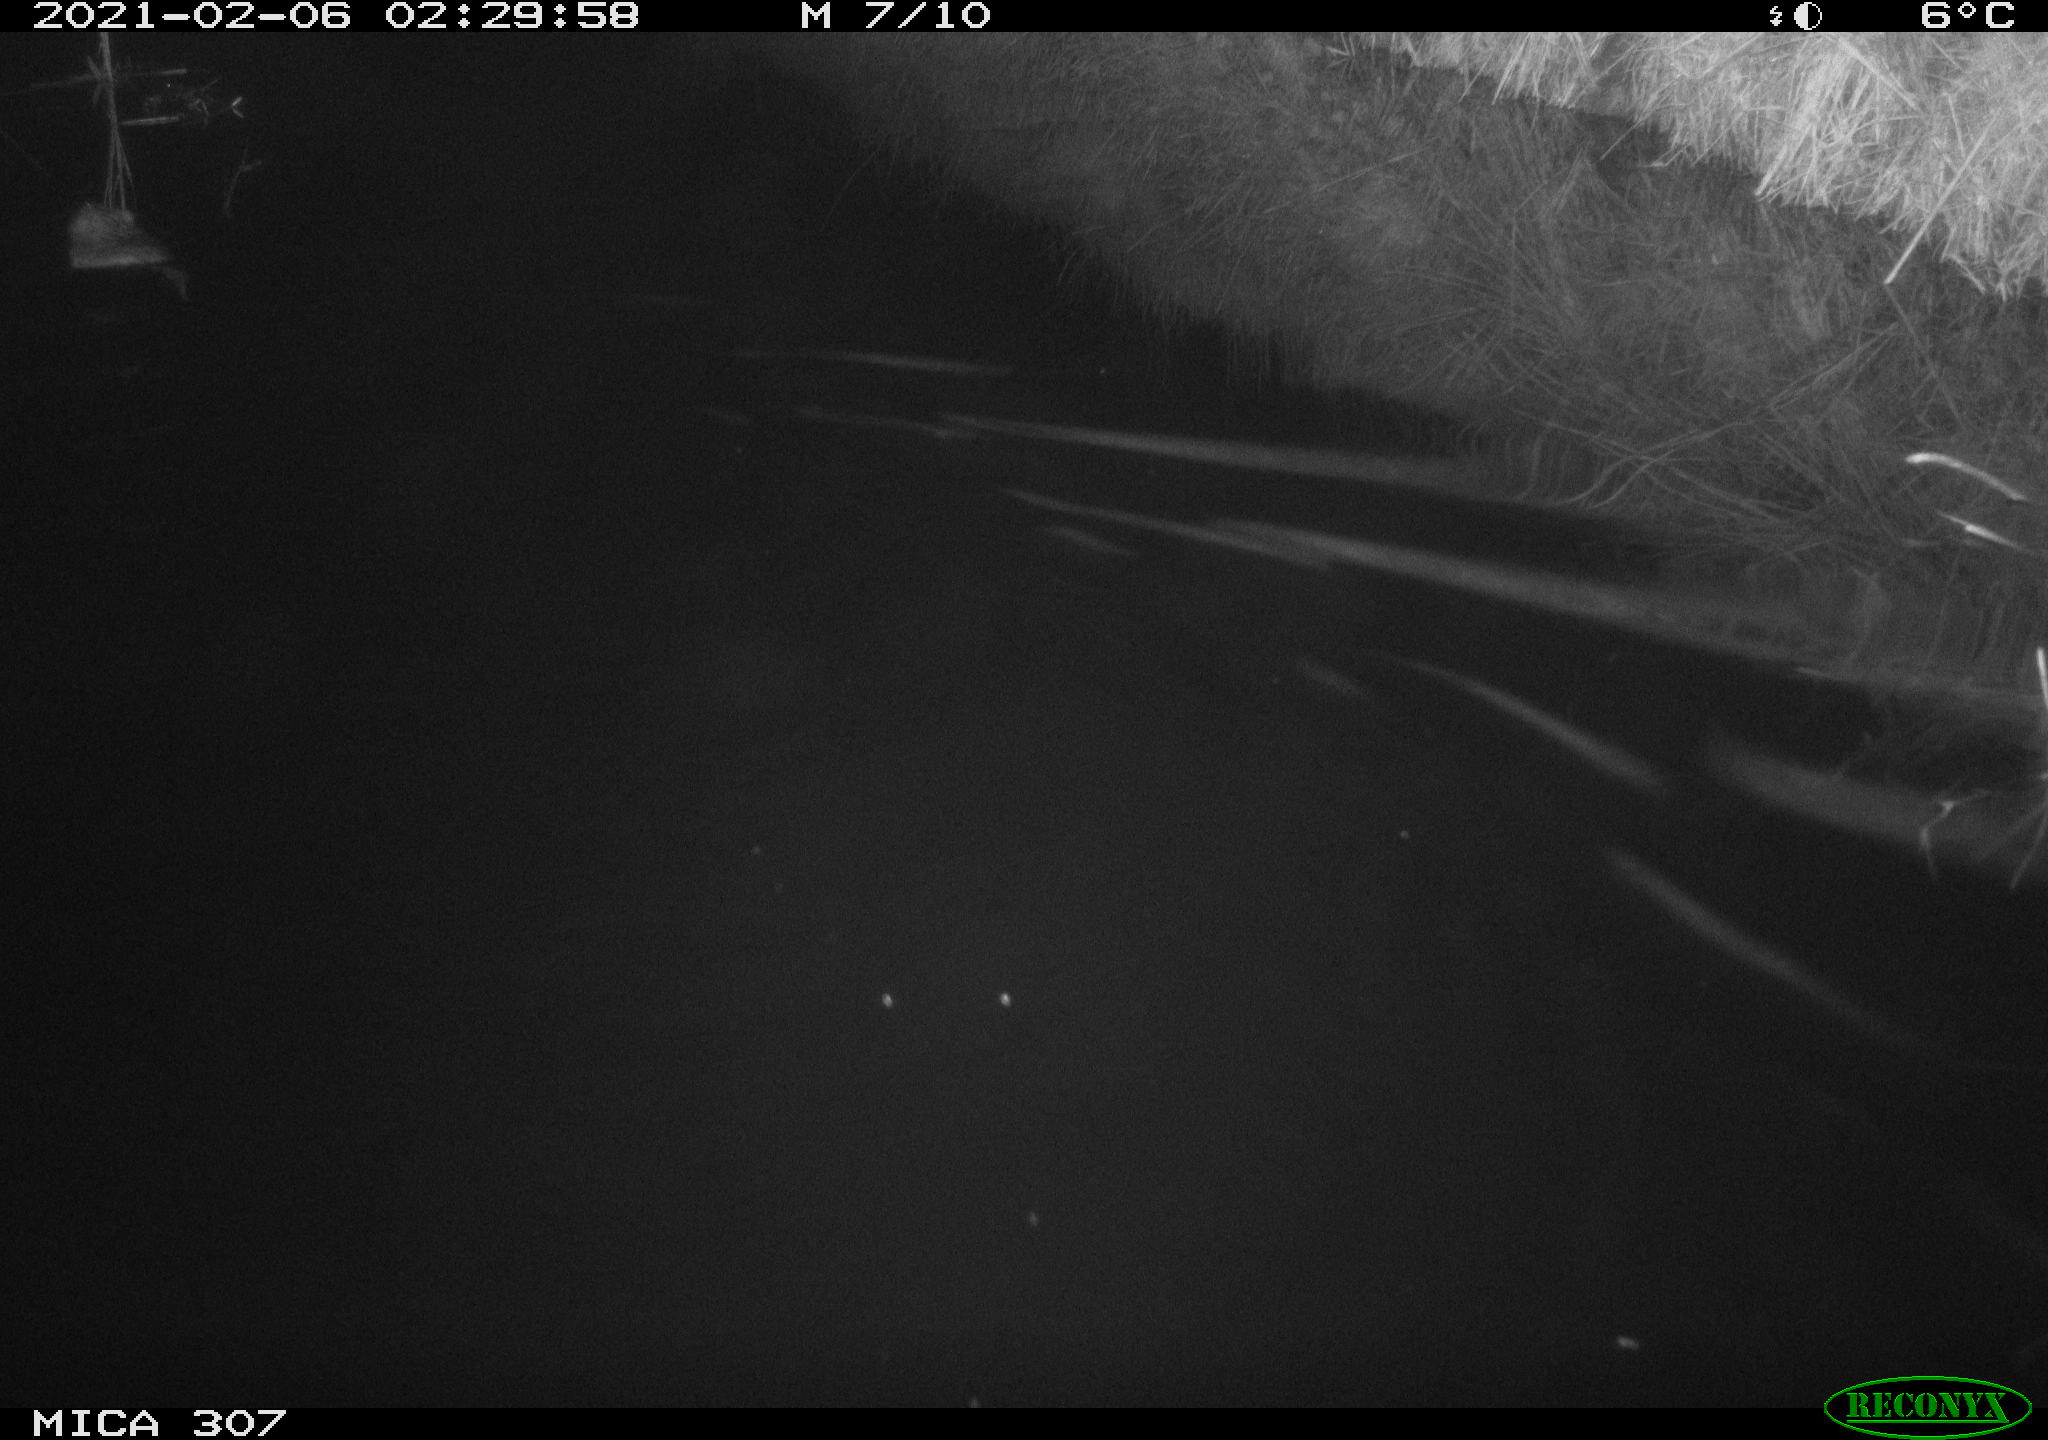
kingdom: Animalia
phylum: Chordata
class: Mammalia
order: Rodentia
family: Cricetidae
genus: Ondatra
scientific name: Ondatra zibethicus
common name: Muskrat
